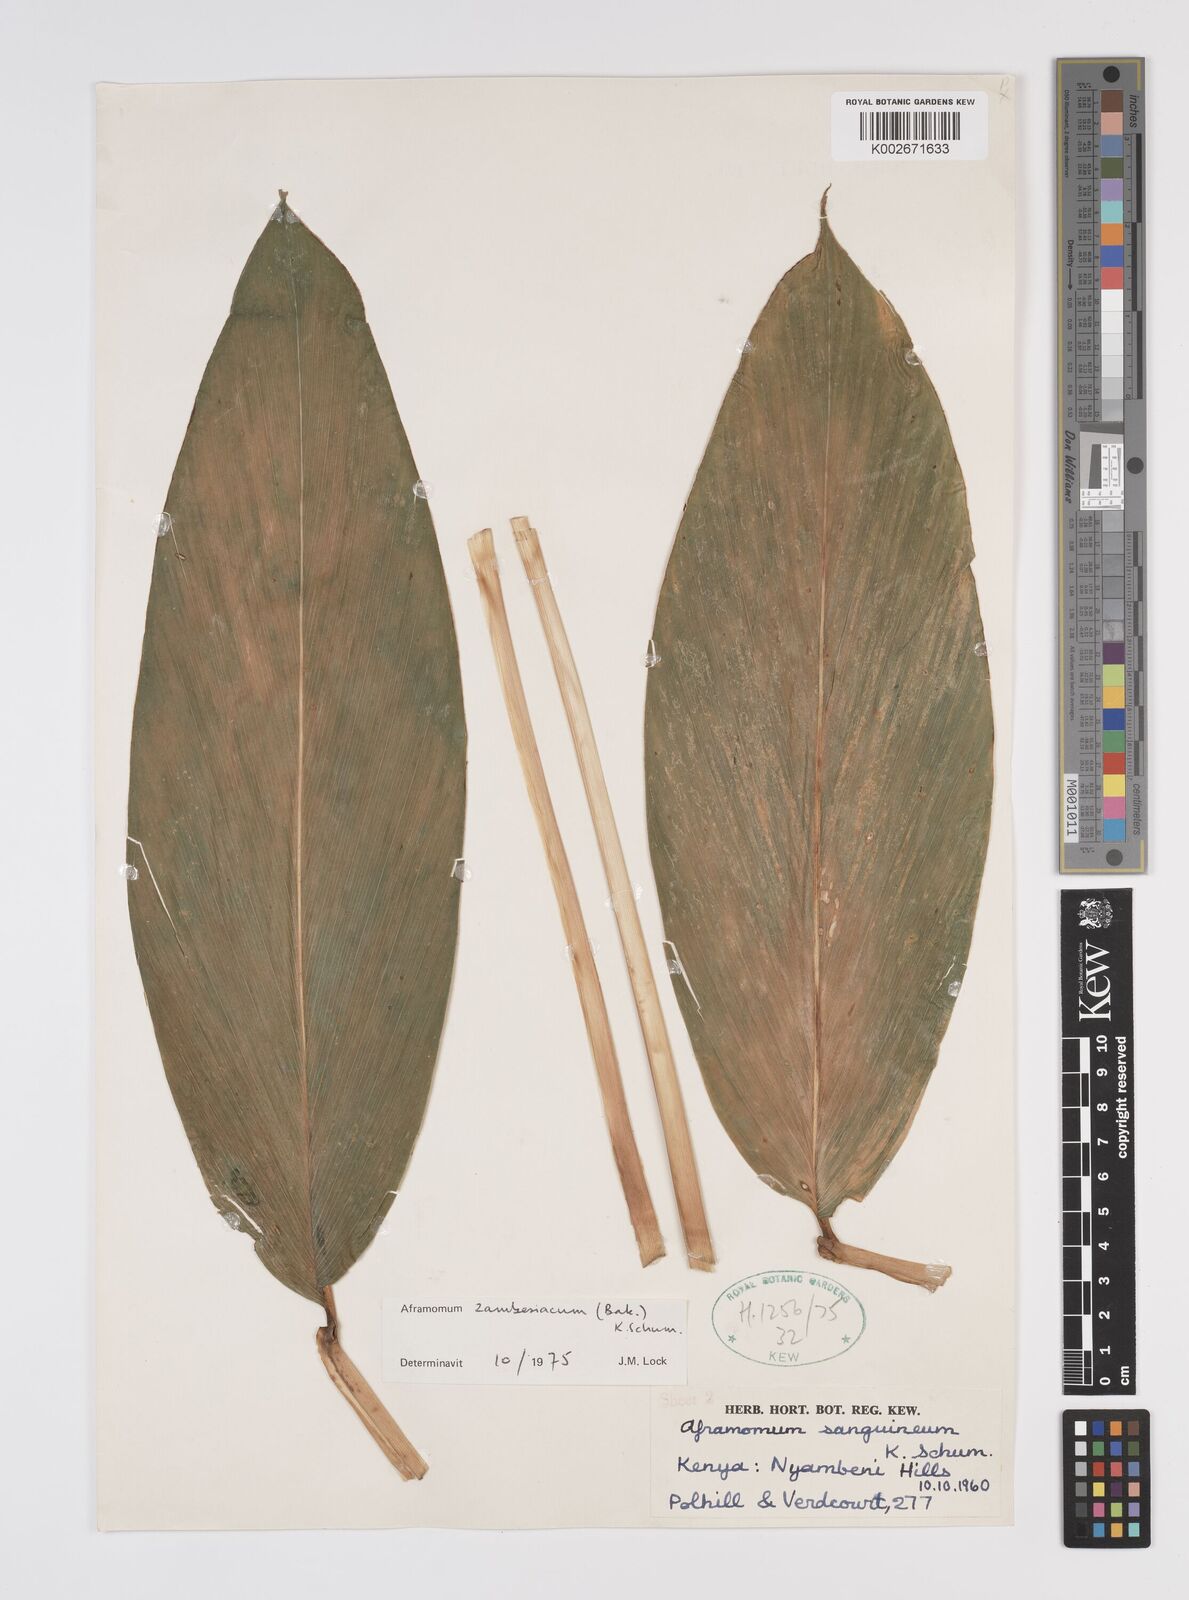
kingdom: Plantae
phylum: Tracheophyta
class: Liliopsida
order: Zingiberales
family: Zingiberaceae
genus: Aframomum
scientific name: Aframomum zambesiacum
